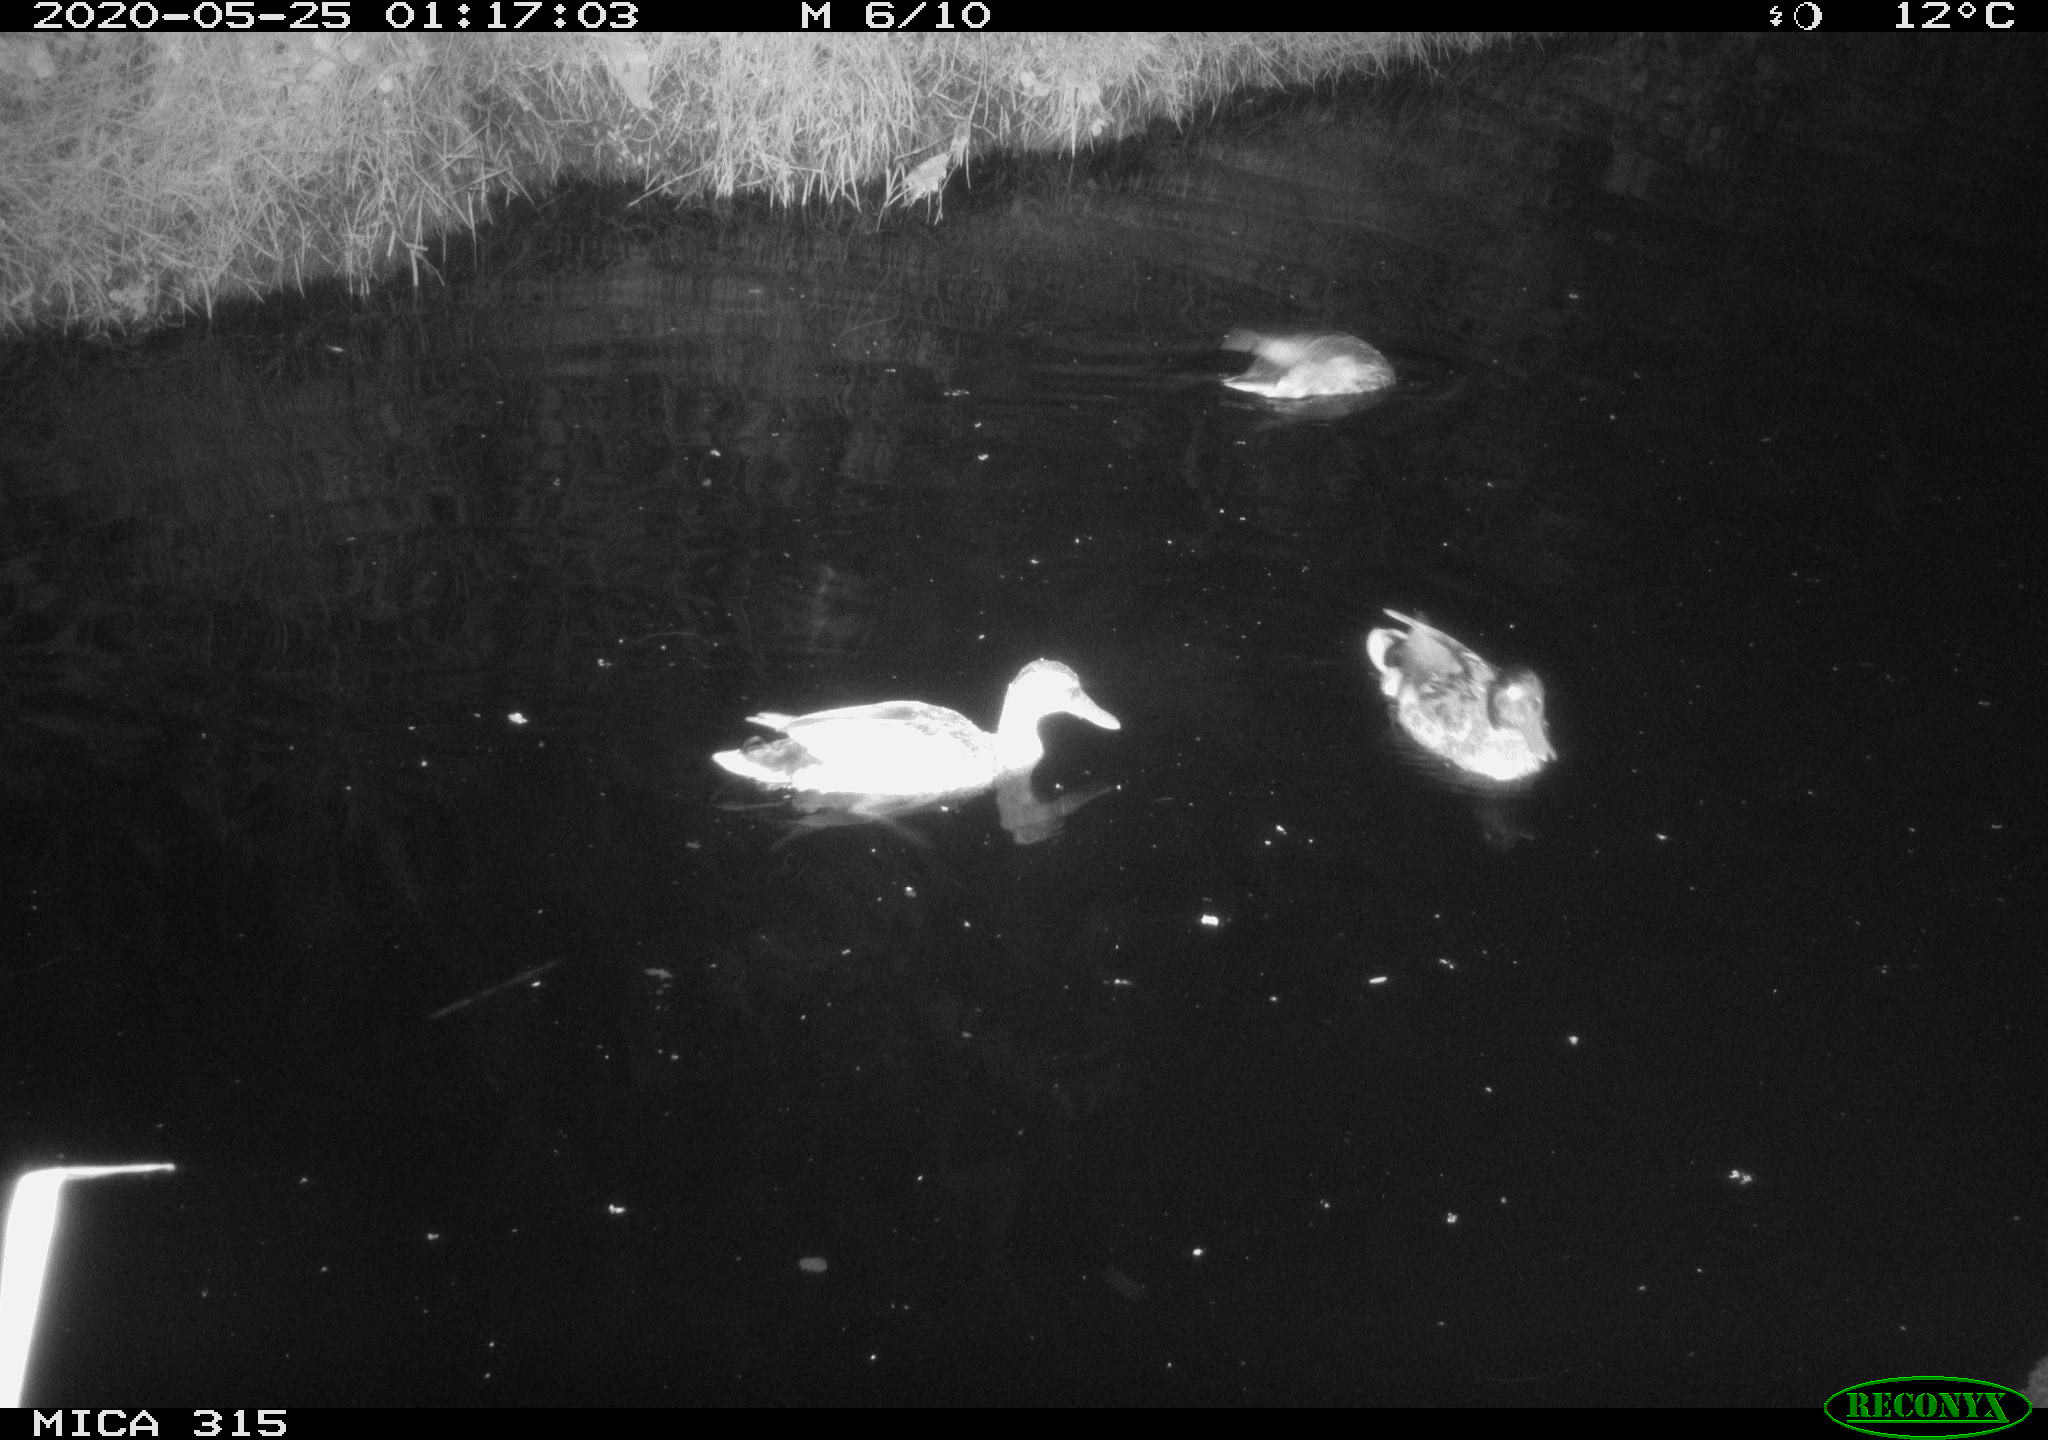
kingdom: Animalia
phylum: Chordata
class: Aves
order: Anseriformes
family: Anatidae
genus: Anas
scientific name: Anas platyrhynchos
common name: Mallard
